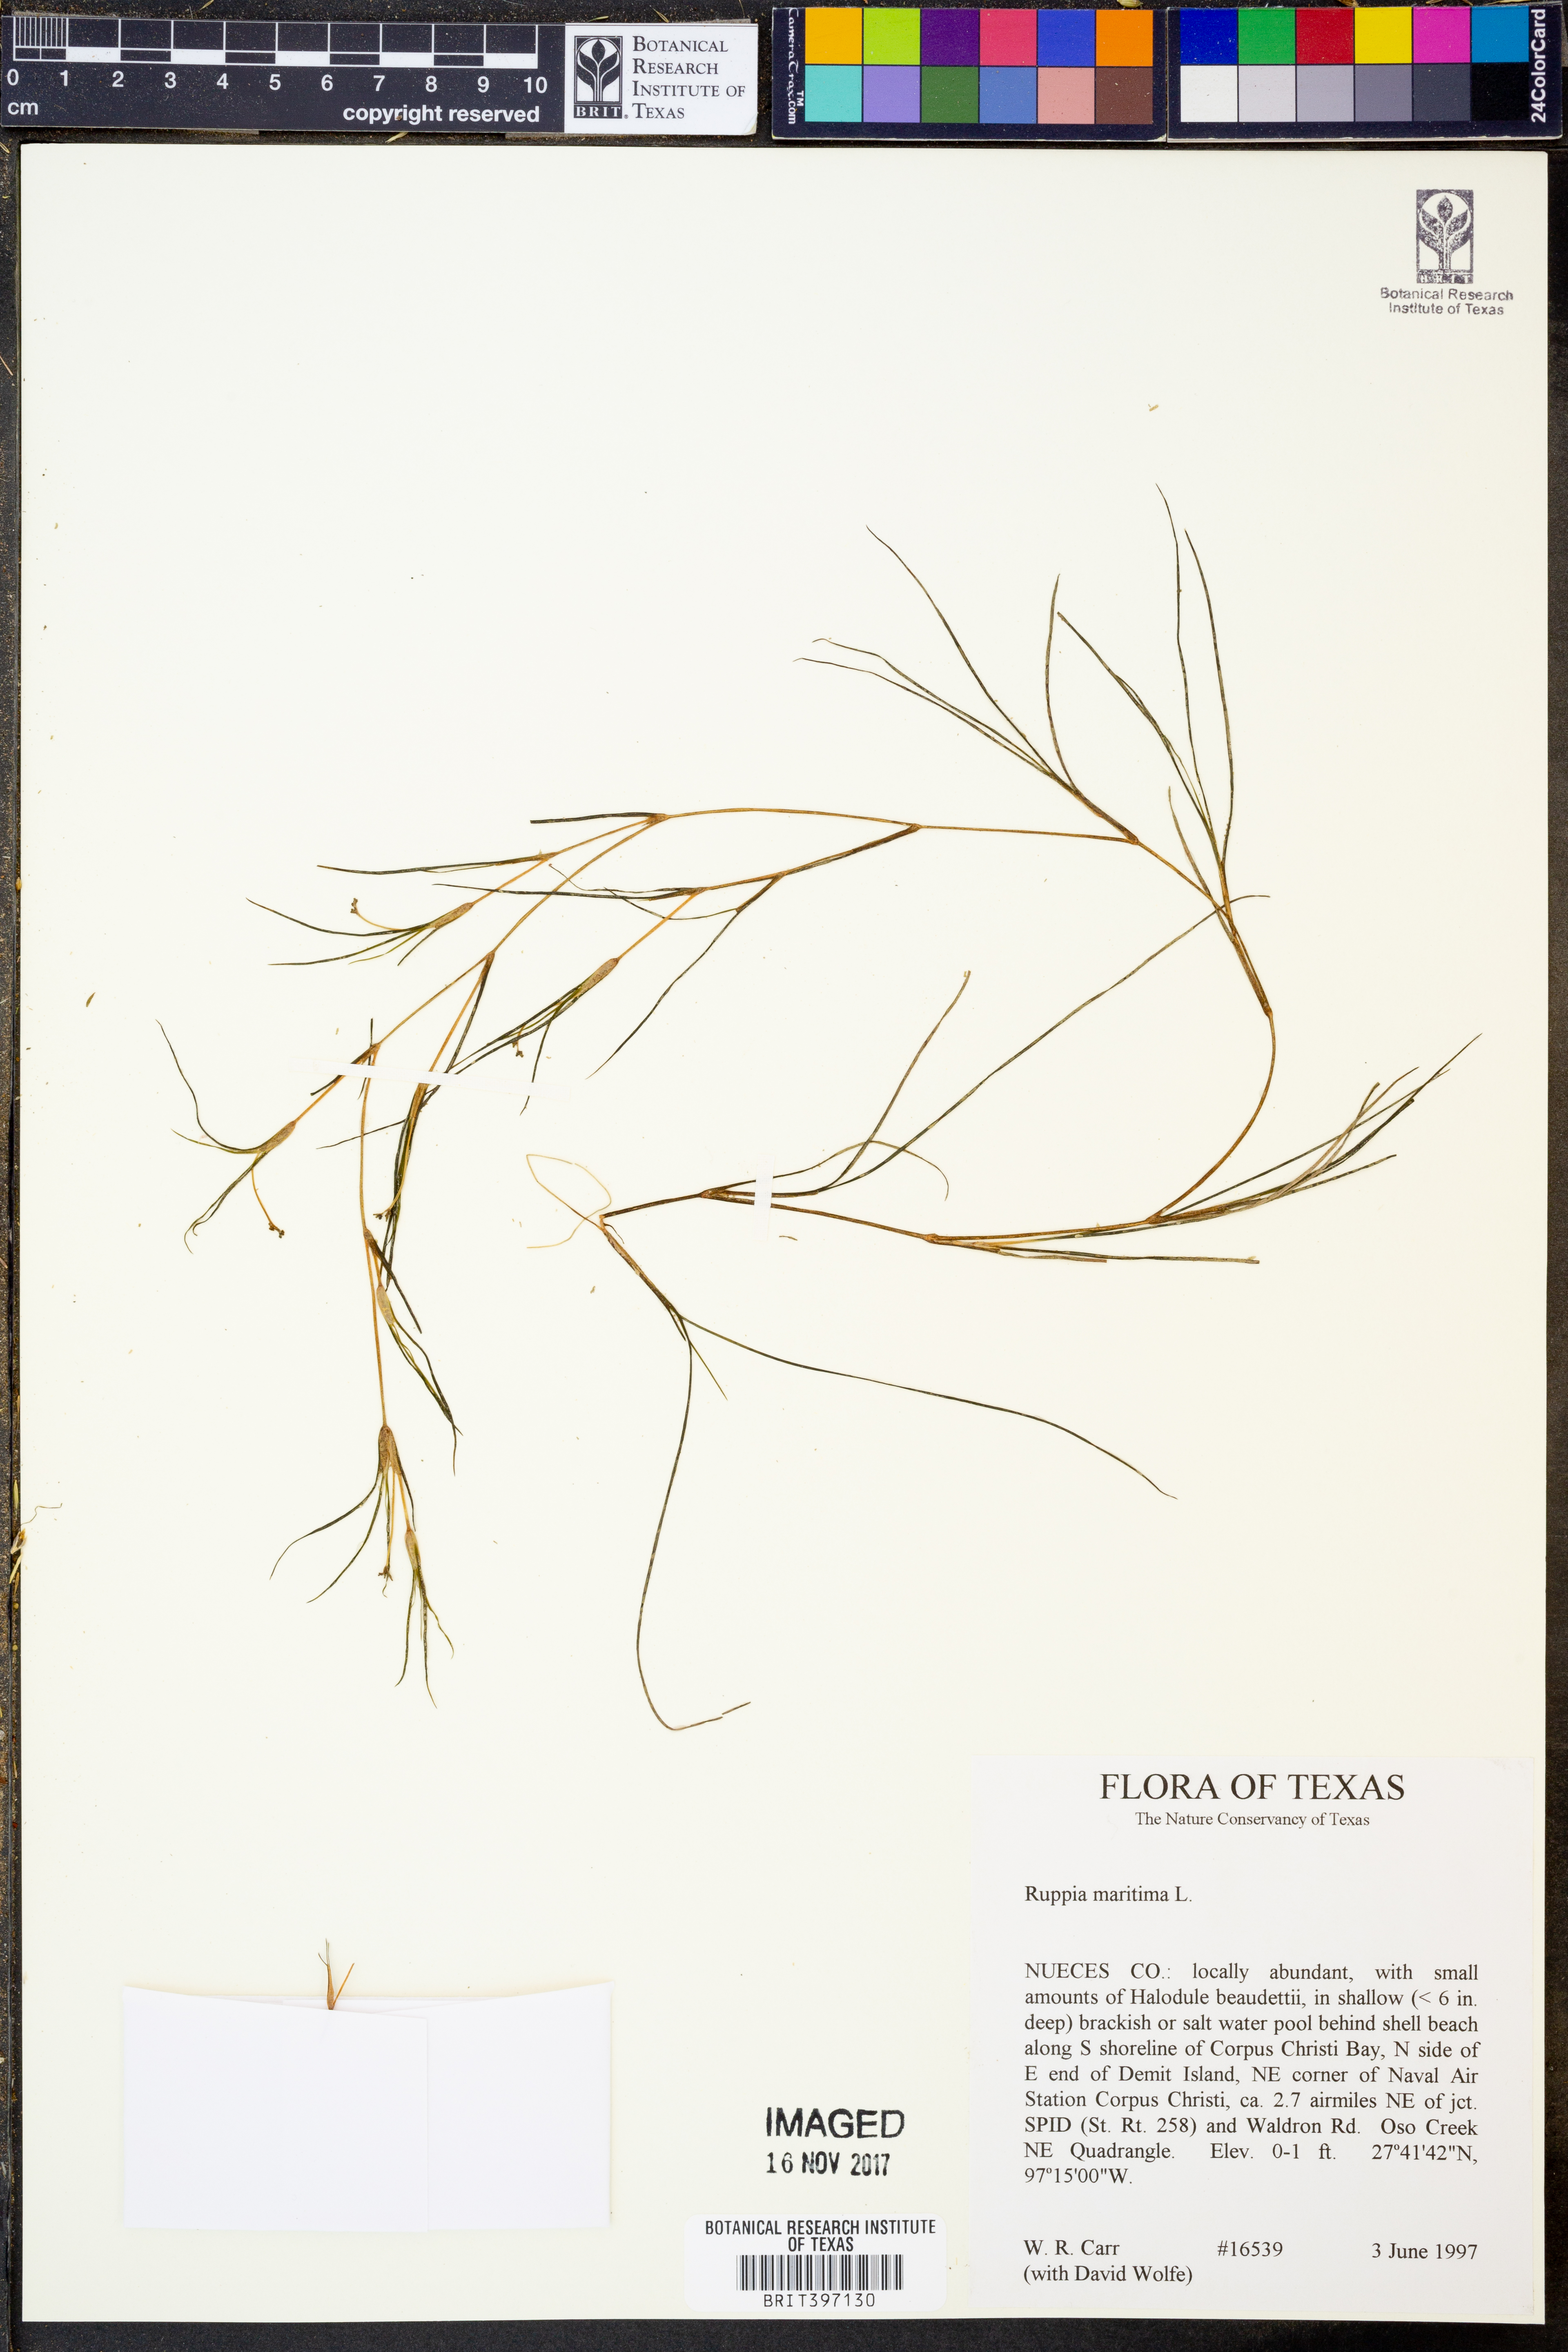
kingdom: Plantae
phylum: Tracheophyta
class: Liliopsida
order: Alismatales
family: Ruppiaceae
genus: Ruppia
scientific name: Ruppia maritima
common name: Beaked tasselweed
